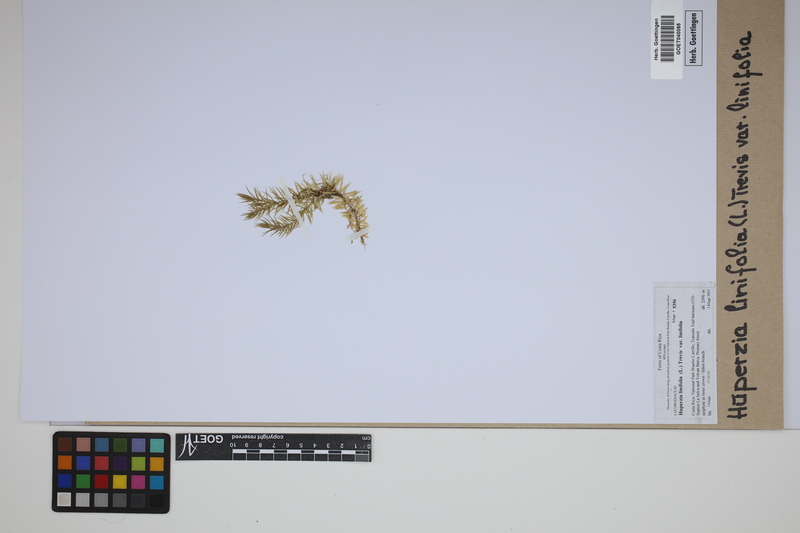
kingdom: Plantae
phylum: Tracheophyta
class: Lycopodiopsida
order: Lycopodiales
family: Lycopodiaceae
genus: Phlegmariurus
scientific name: Phlegmariurus linifolius
